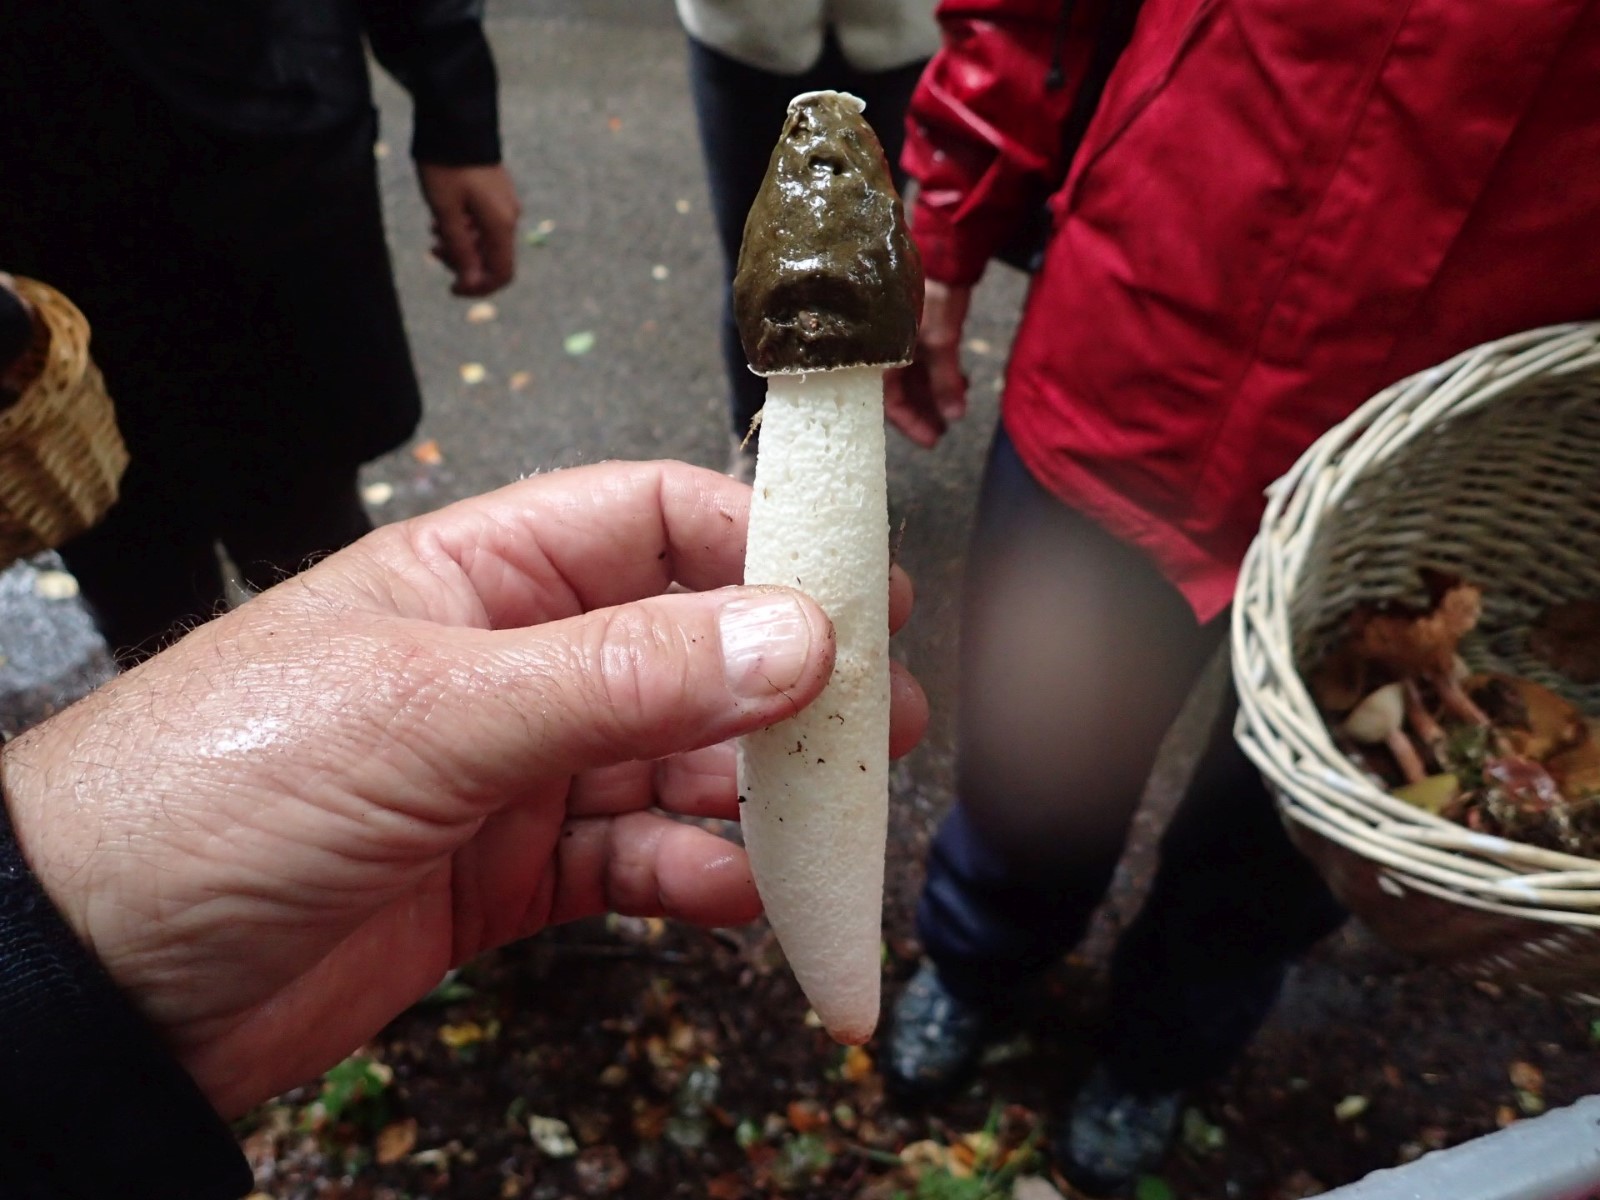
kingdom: Fungi
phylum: Basidiomycota
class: Agaricomycetes
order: Phallales
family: Phallaceae
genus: Phallus
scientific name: Phallus impudicus
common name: almindelig stinksvamp
